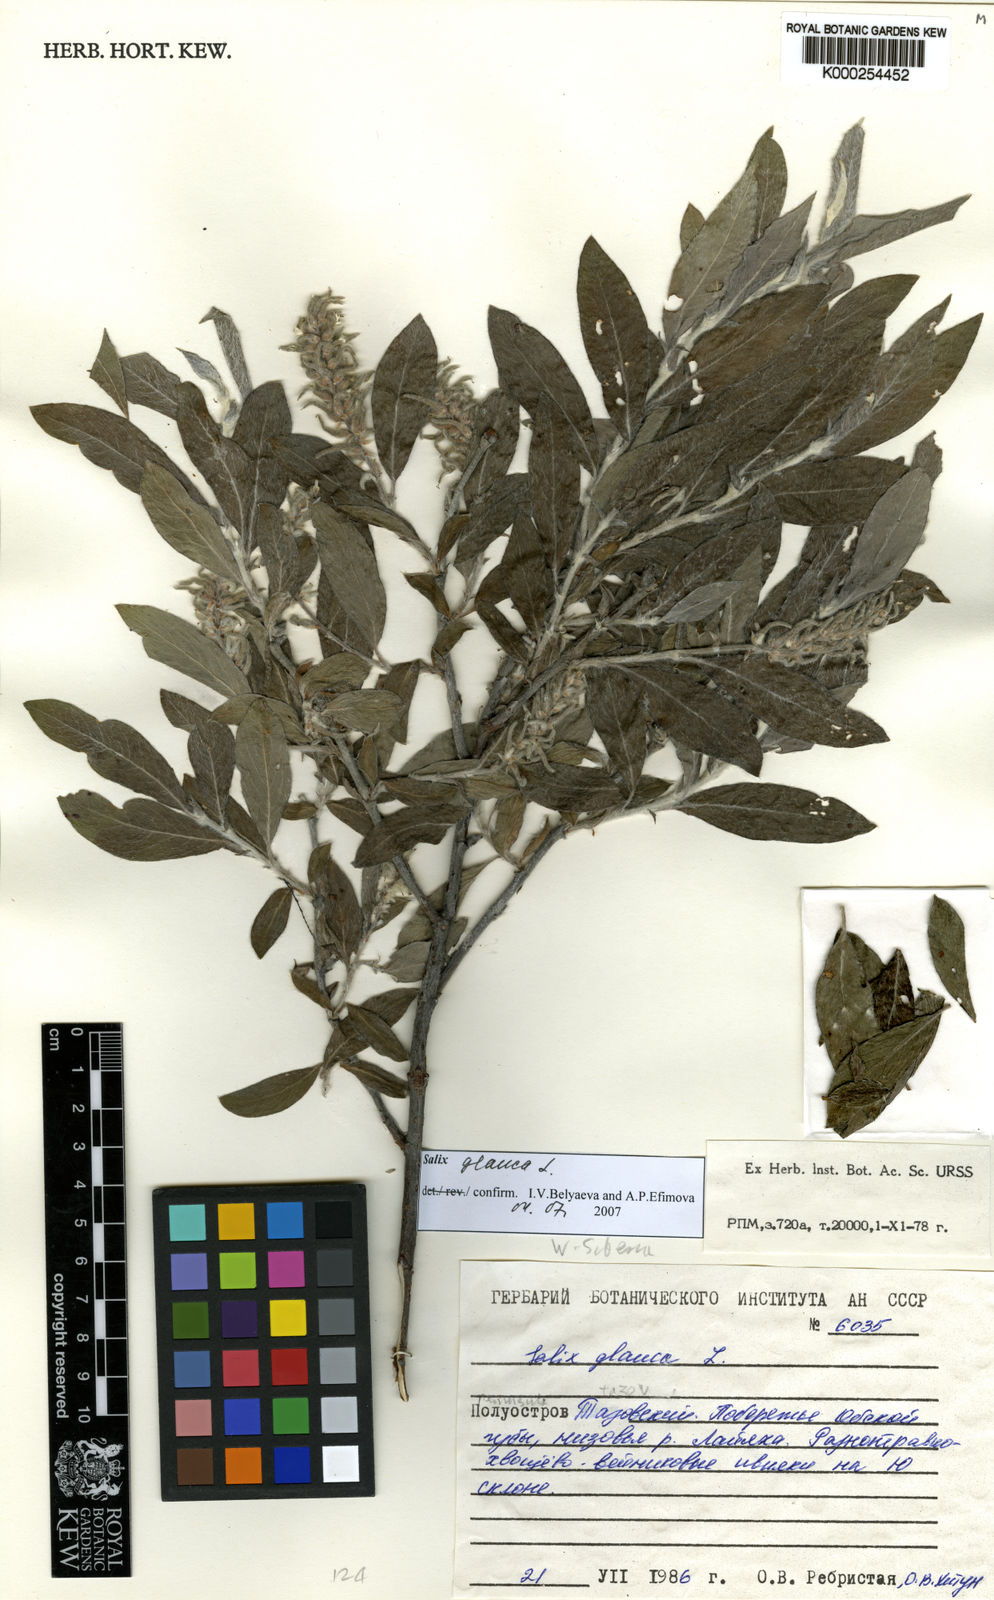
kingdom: Plantae
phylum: Tracheophyta
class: Magnoliopsida
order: Malpighiales
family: Salicaceae
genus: Salix
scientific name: Salix glauca
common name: Glaucous willow
